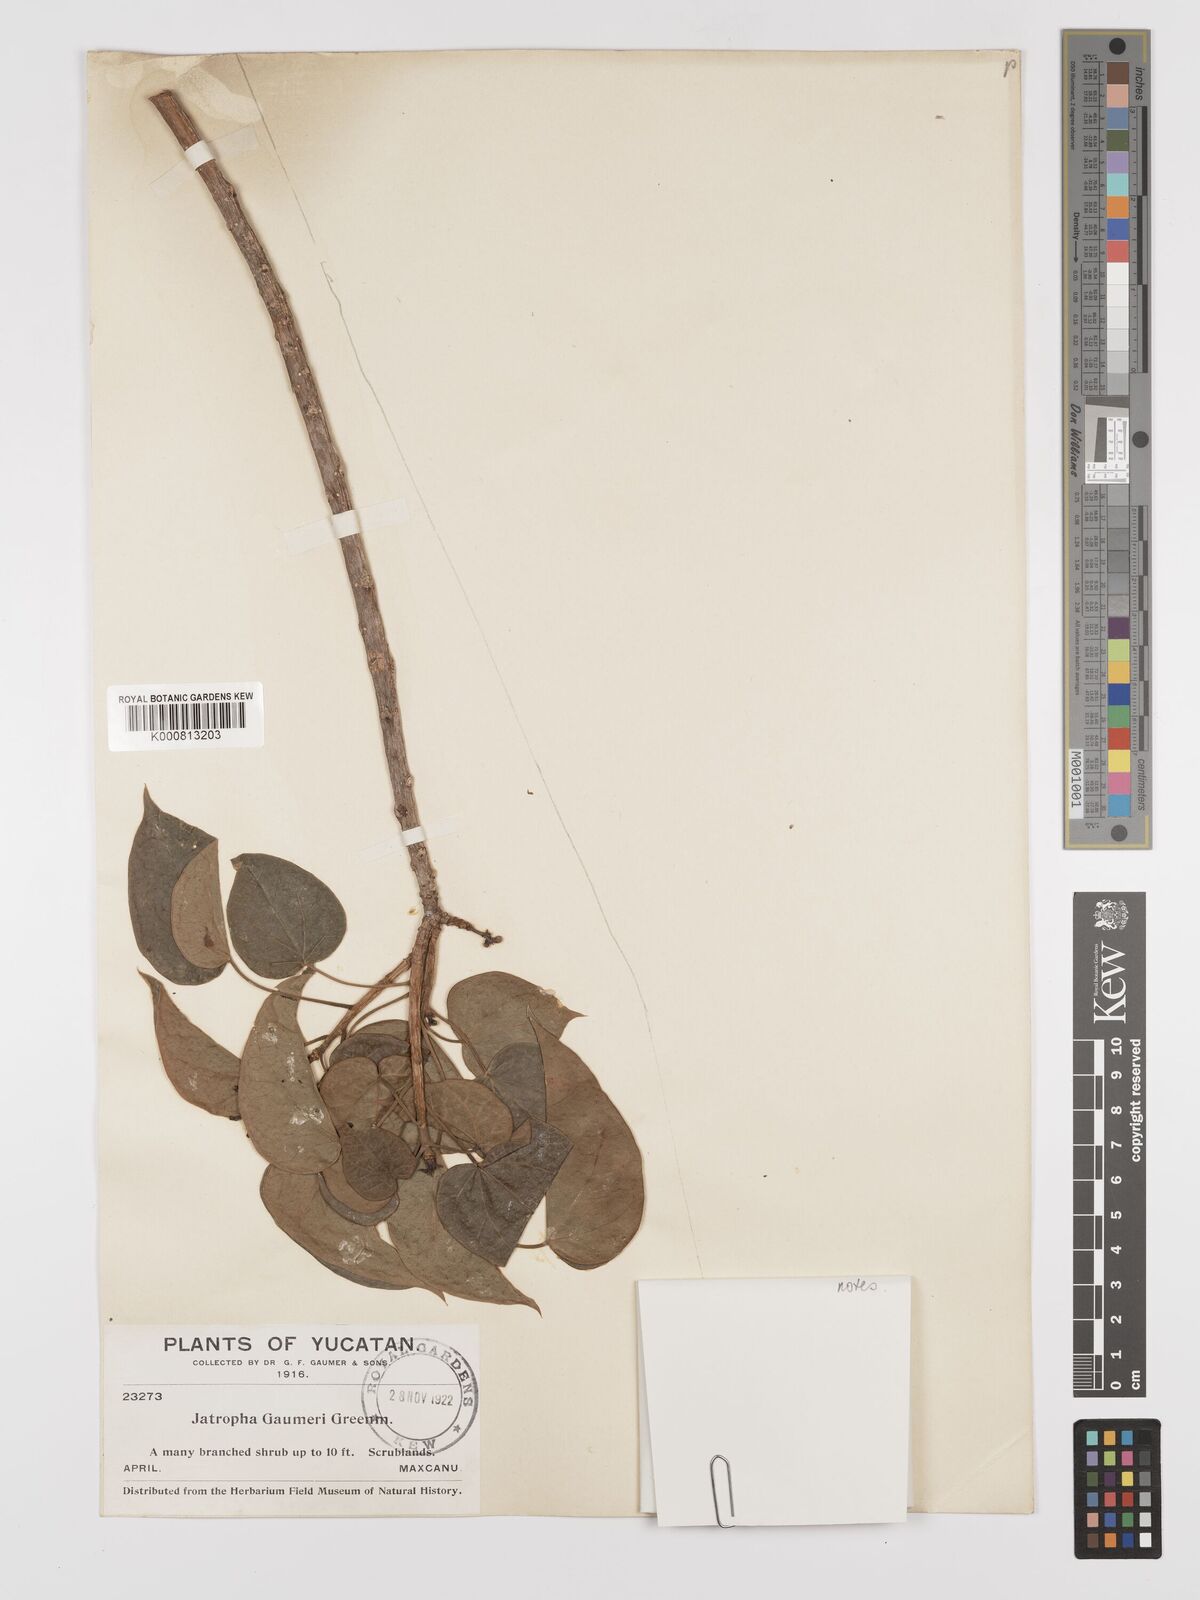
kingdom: Plantae
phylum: Tracheophyta
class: Magnoliopsida
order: Malpighiales
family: Euphorbiaceae
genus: Jatropha
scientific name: Jatropha gaumeri
